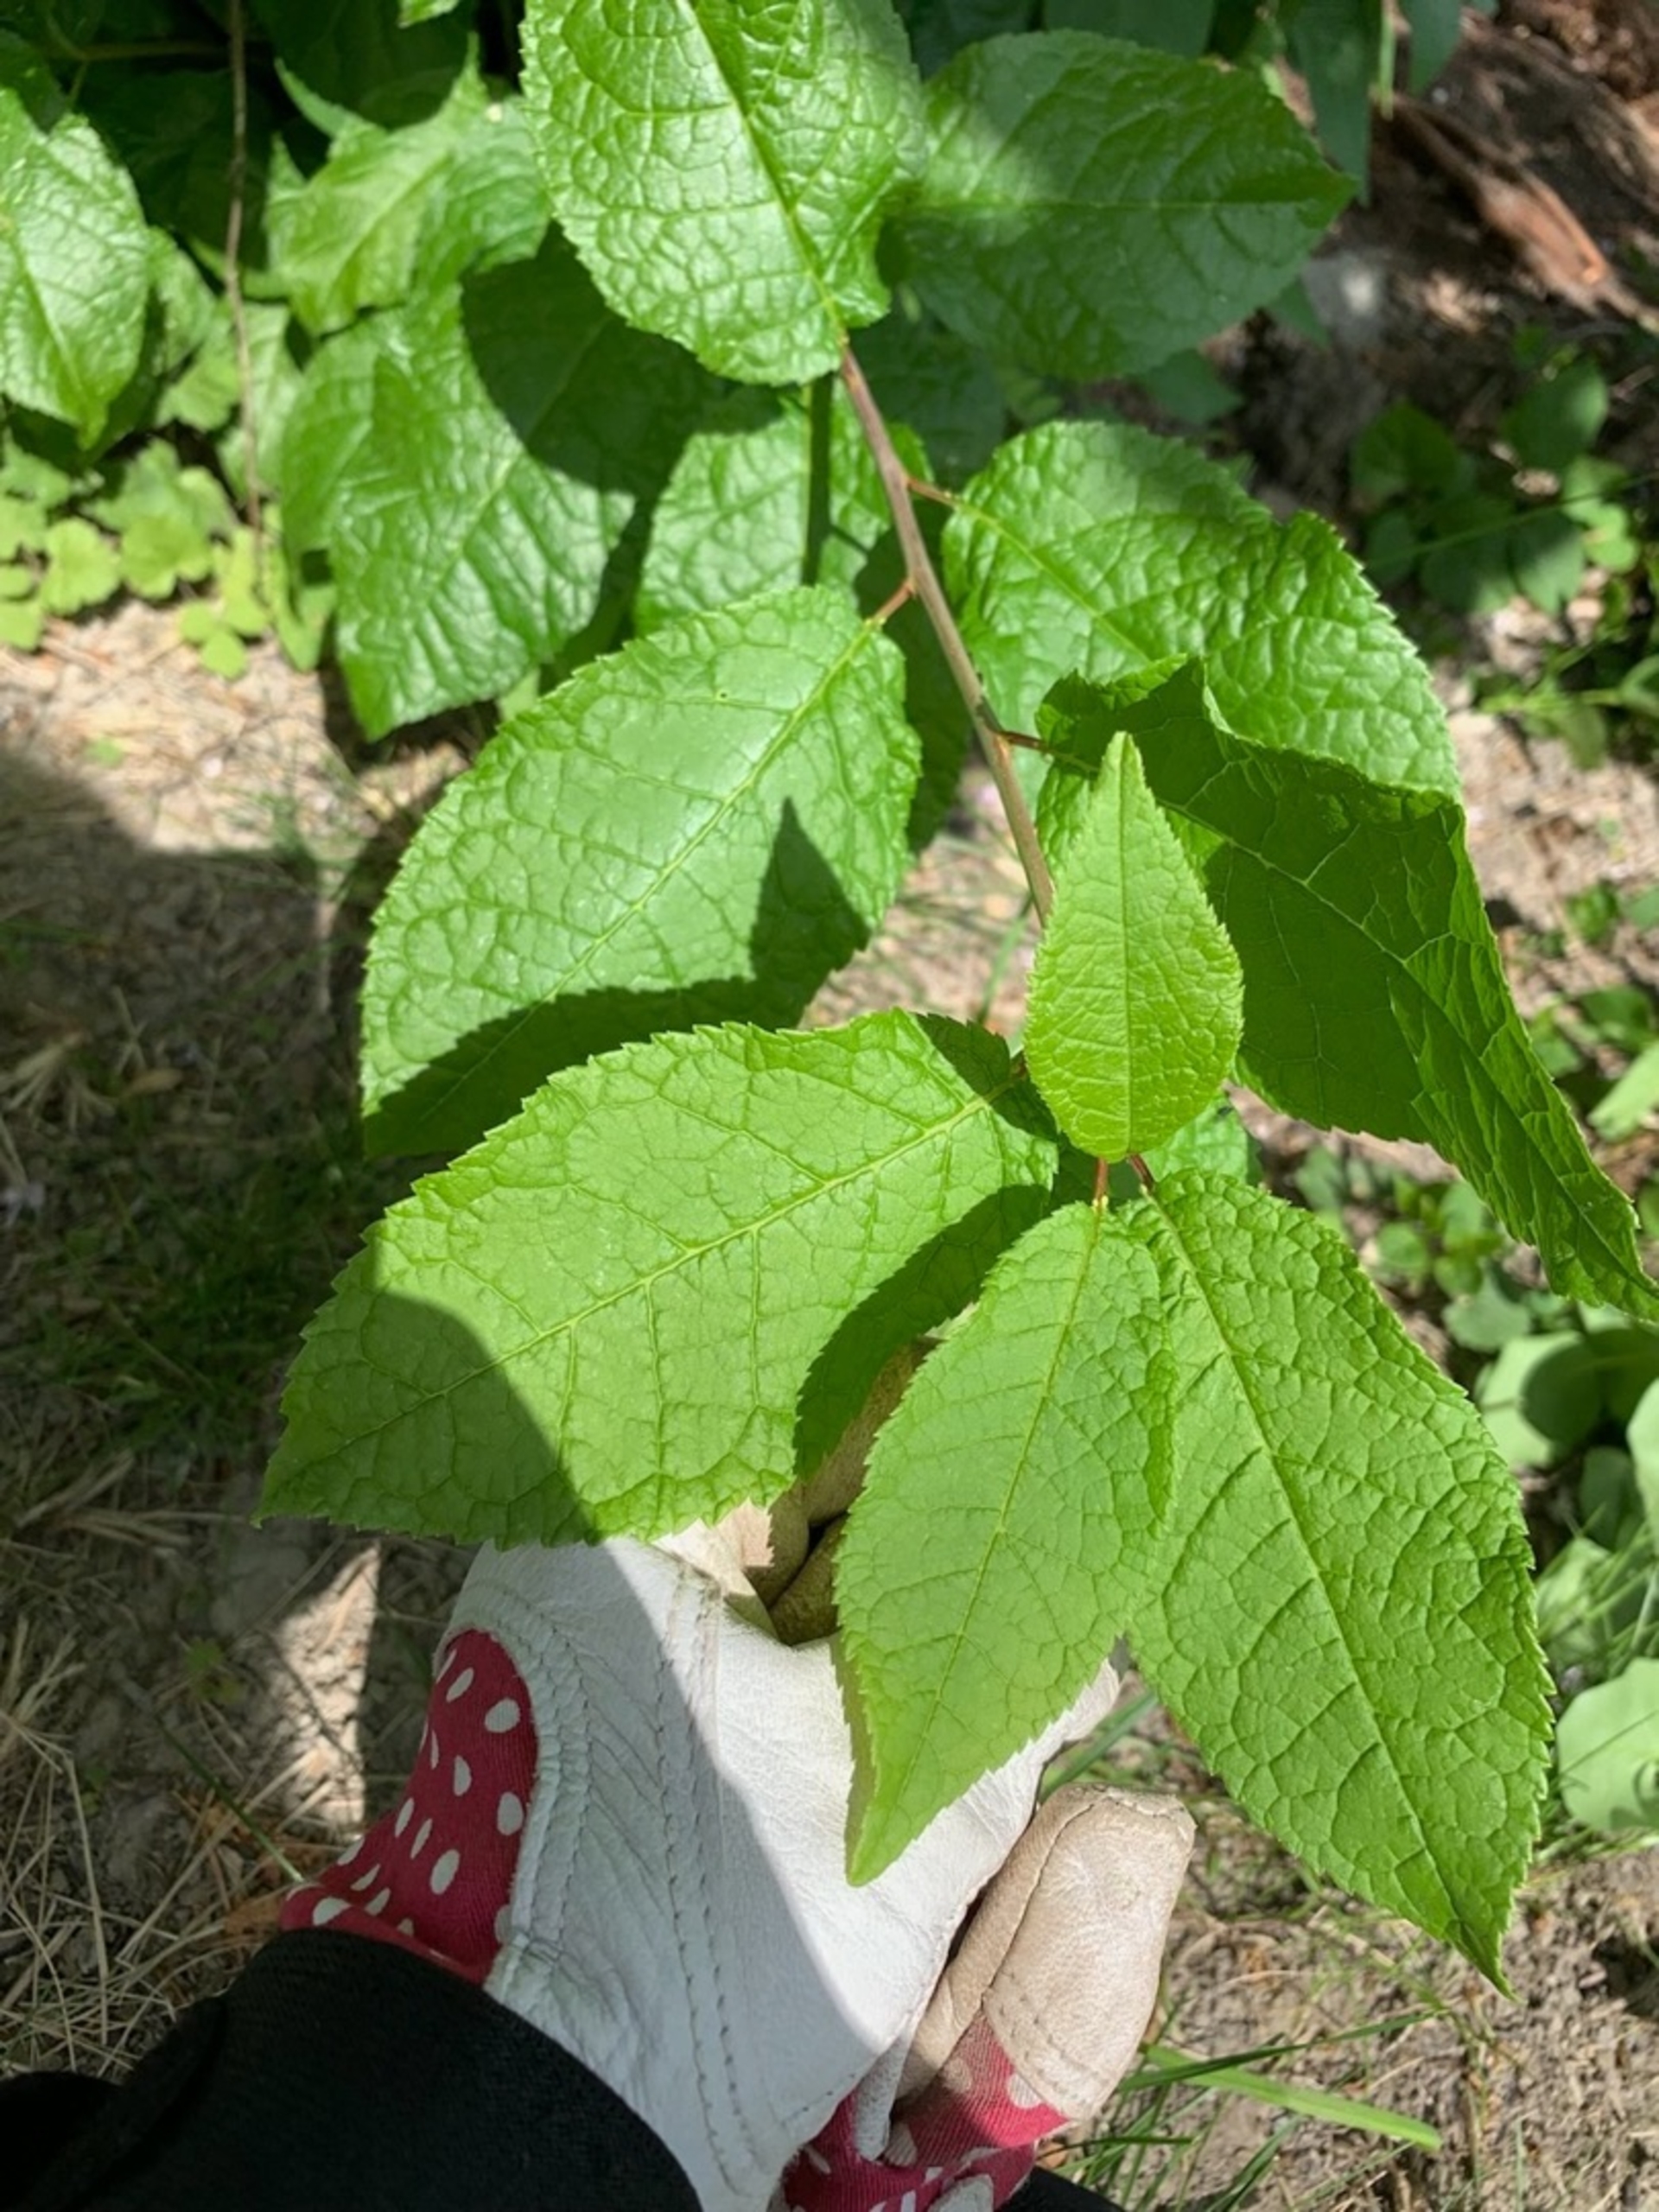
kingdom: Plantae
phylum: Tracheophyta
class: Magnoliopsida
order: Rosales
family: Rosaceae
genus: Prunus
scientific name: Prunus padus
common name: Almindelig hæg
